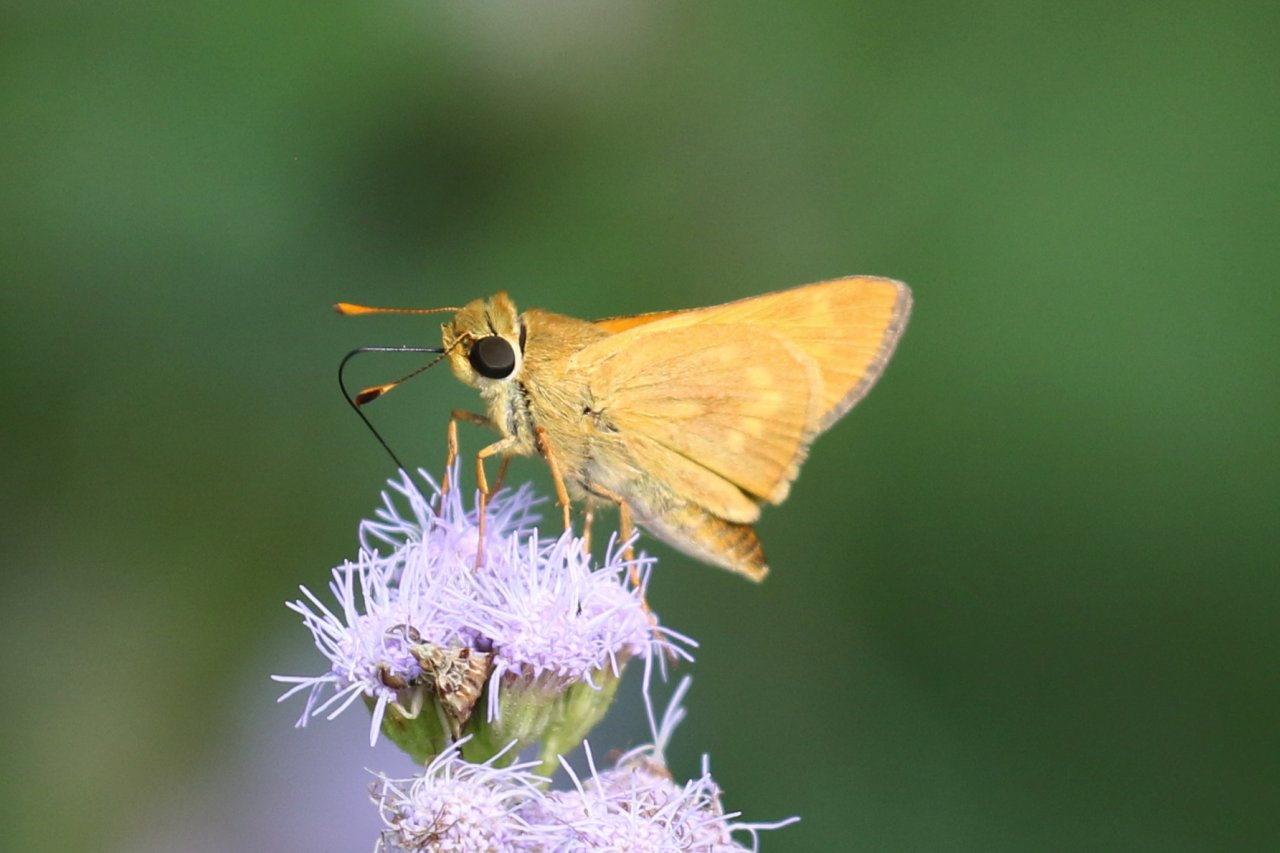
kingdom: Animalia
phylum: Arthropoda
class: Insecta
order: Lepidoptera
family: Hesperiidae
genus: Mellana
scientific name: Mellana eulogius
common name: Common Mellana
